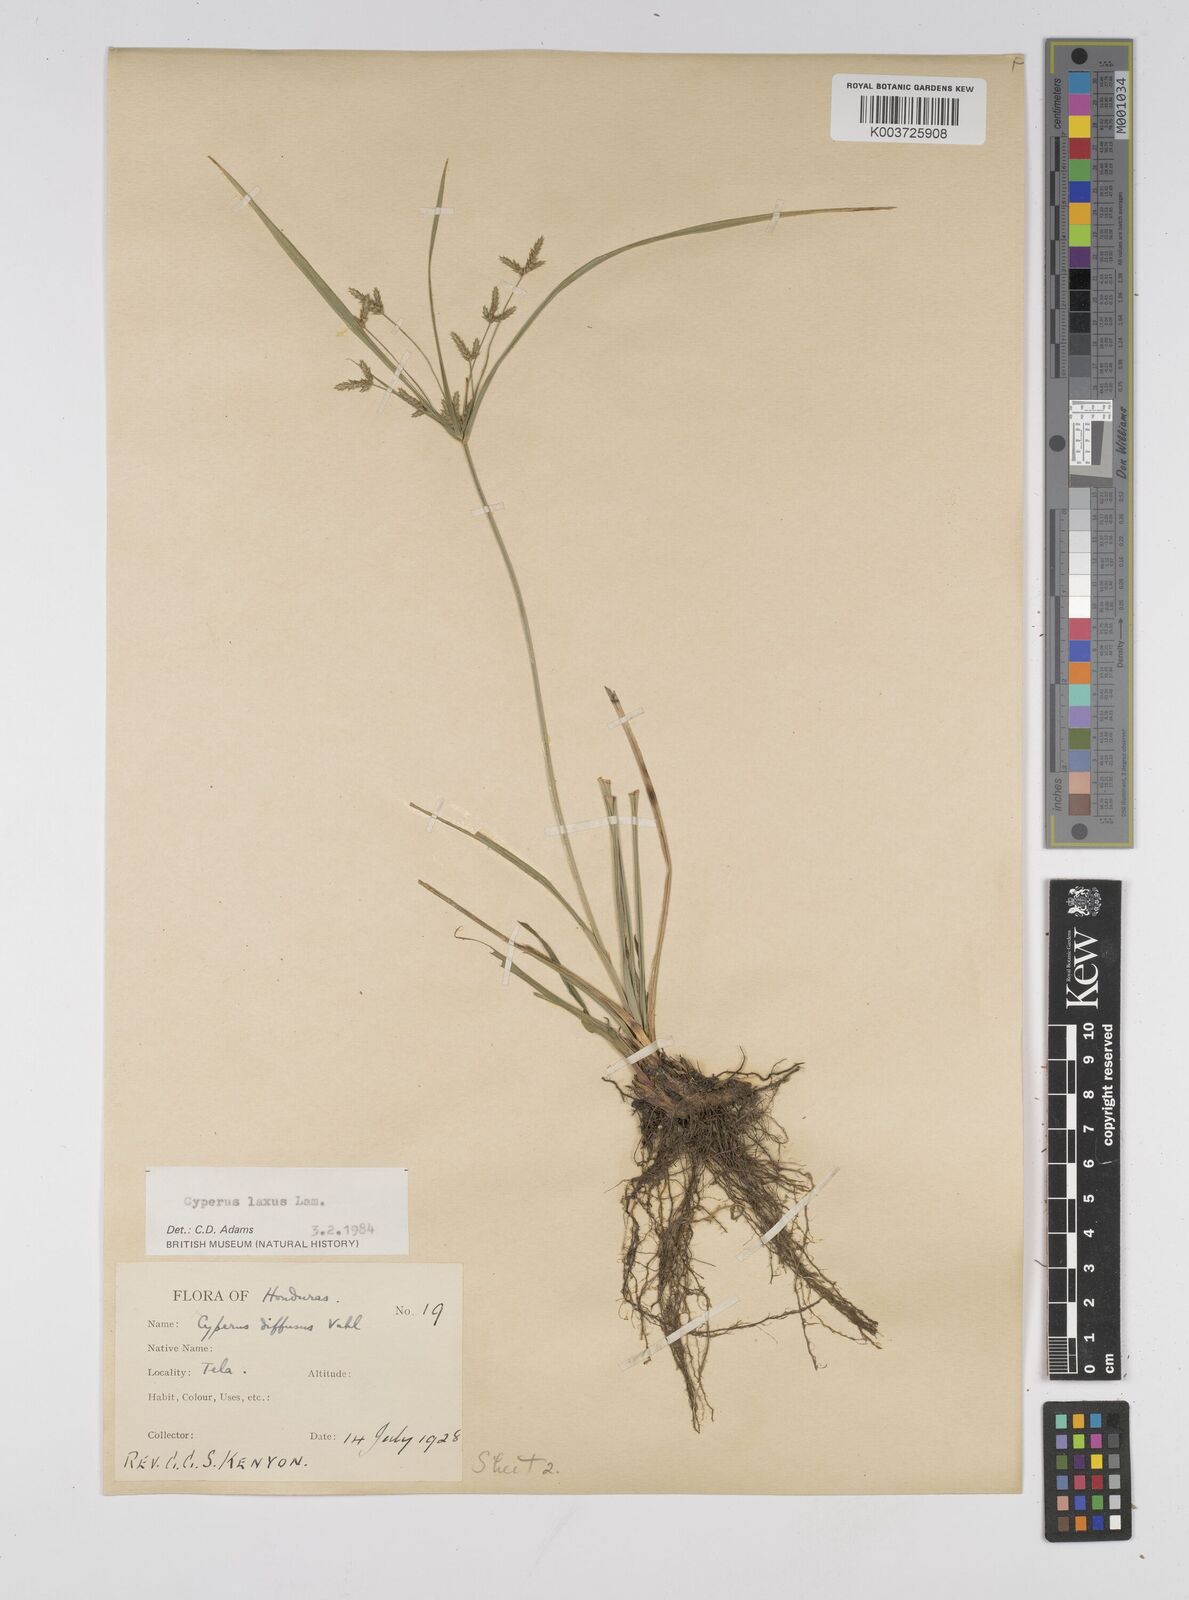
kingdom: Plantae
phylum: Tracheophyta
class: Liliopsida
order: Poales
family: Cyperaceae
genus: Cyperus
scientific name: Cyperus chalaranthus
